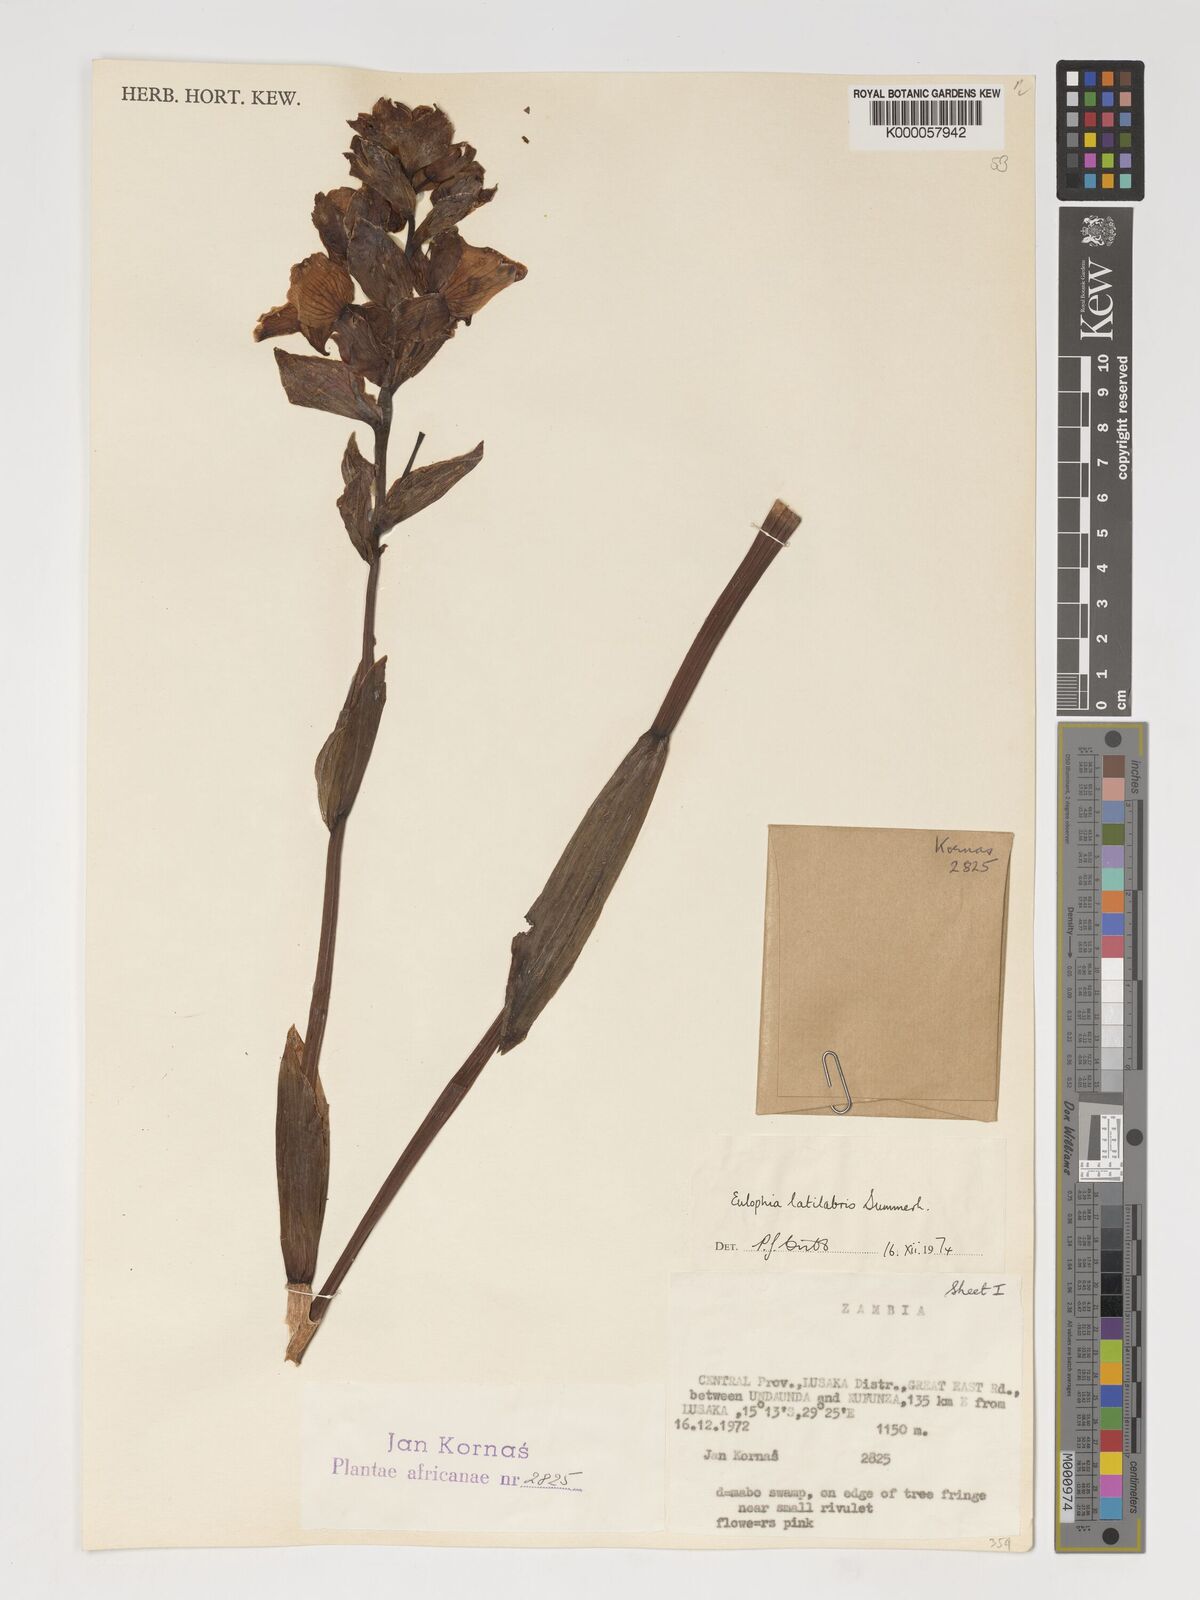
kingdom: Plantae
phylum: Tracheophyta
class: Liliopsida
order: Asparagales
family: Orchidaceae
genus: Eulophia
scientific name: Eulophia latilabris
